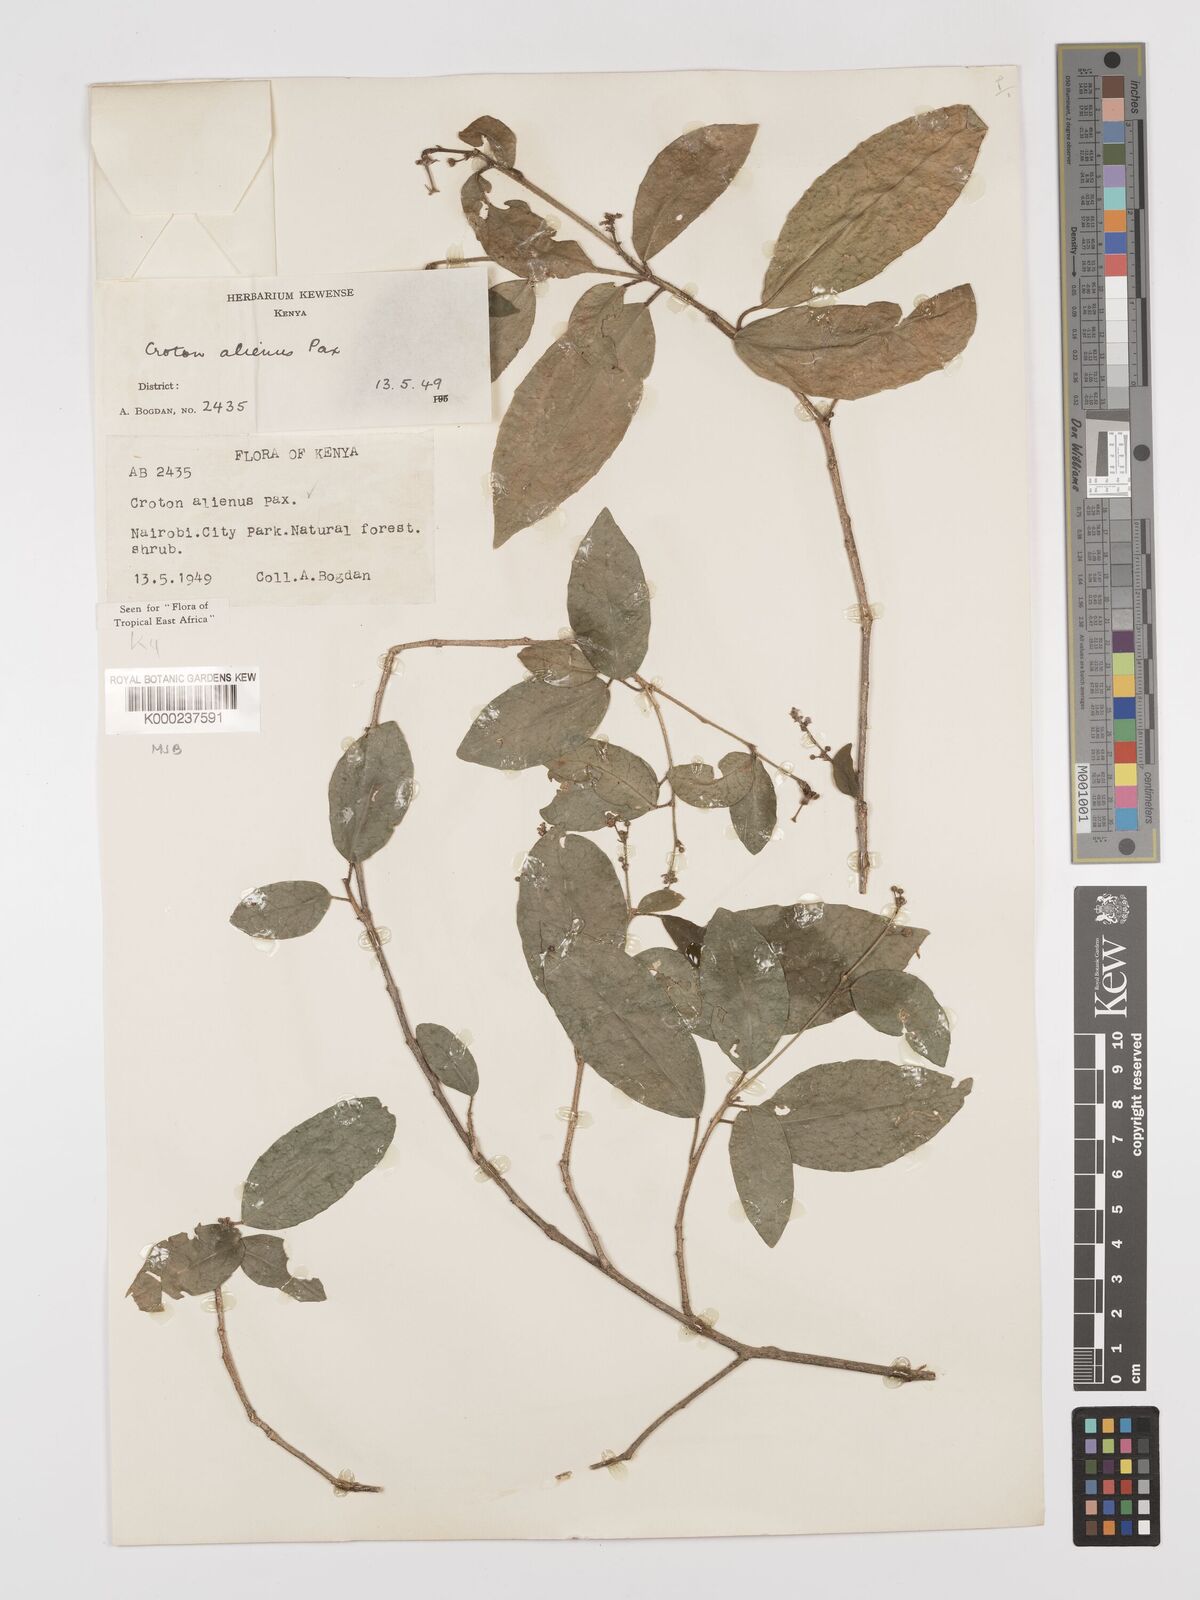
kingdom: Plantae
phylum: Tracheophyta
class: Magnoliopsida
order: Malpighiales
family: Euphorbiaceae
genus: Croton
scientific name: Croton alienus
